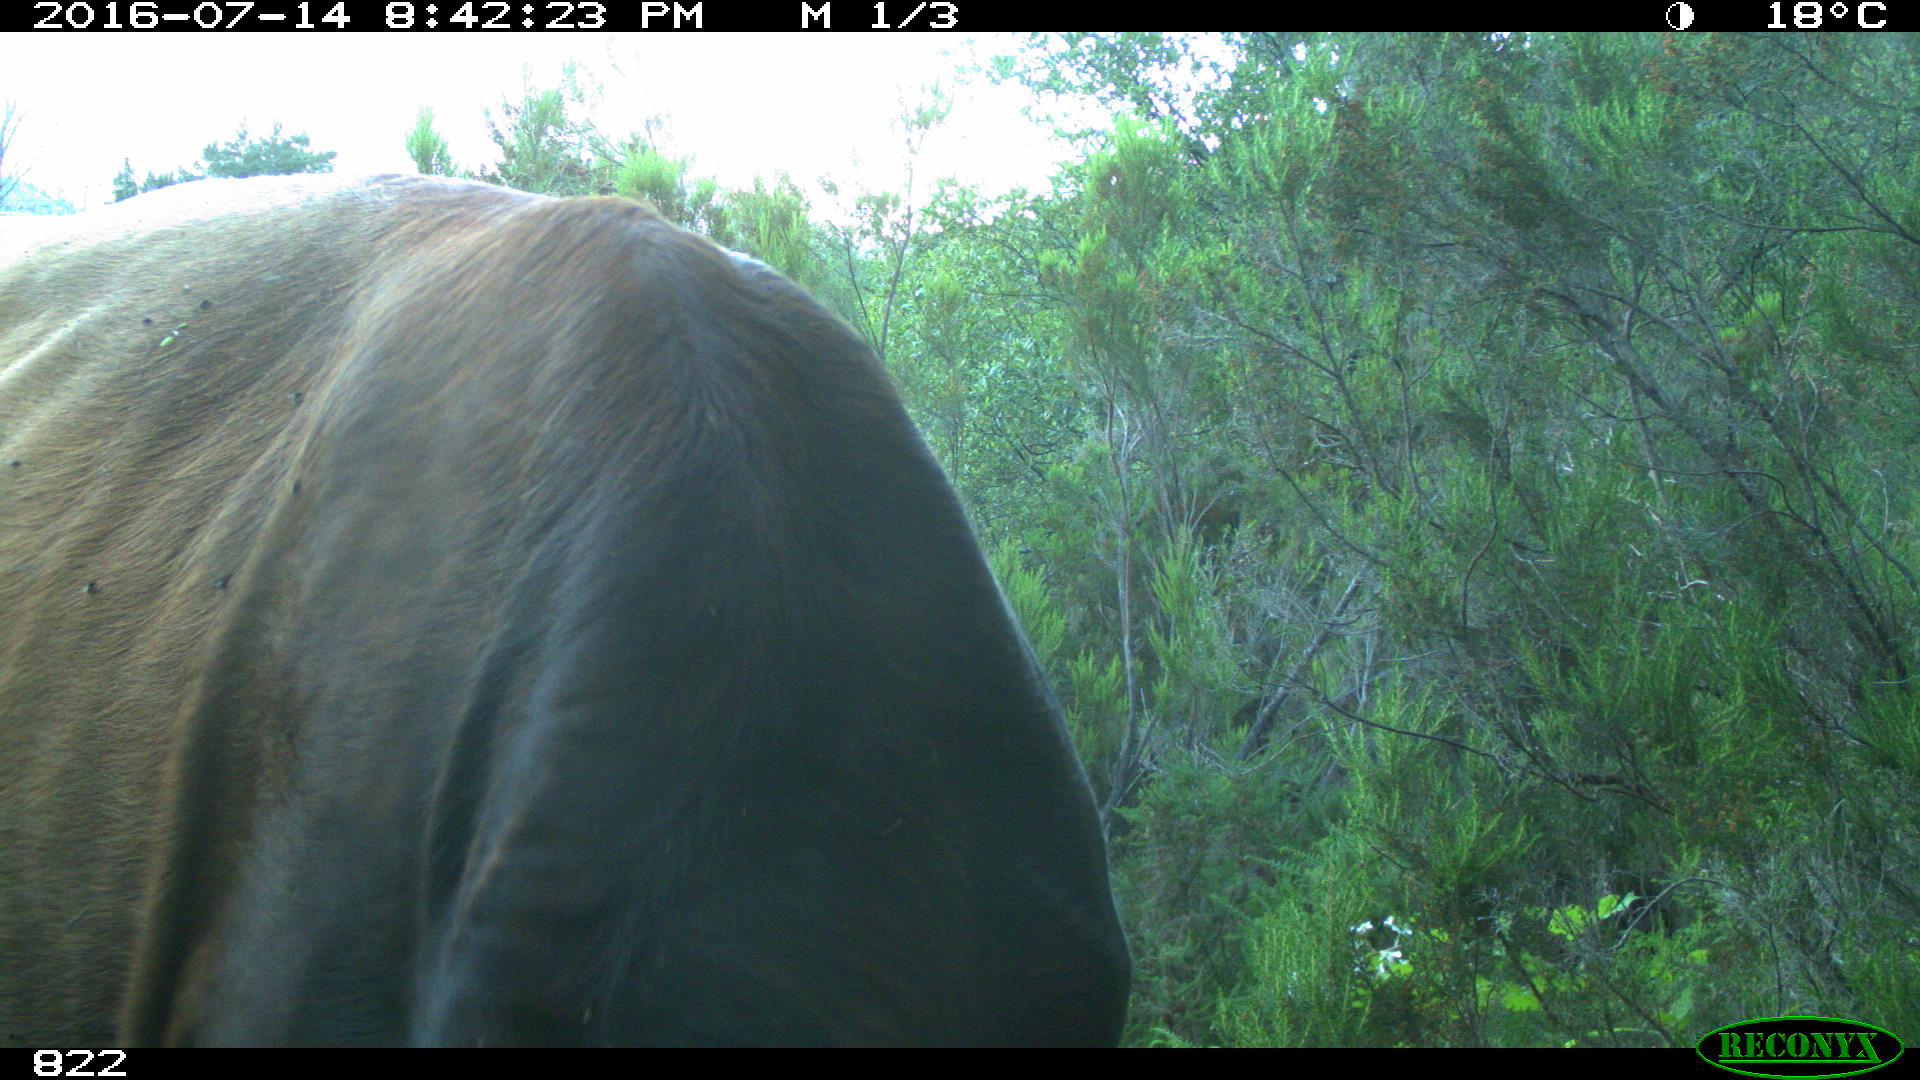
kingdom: Animalia
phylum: Chordata
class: Mammalia
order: Artiodactyla
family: Bovidae
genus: Bos
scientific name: Bos taurus
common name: Domesticated cattle
